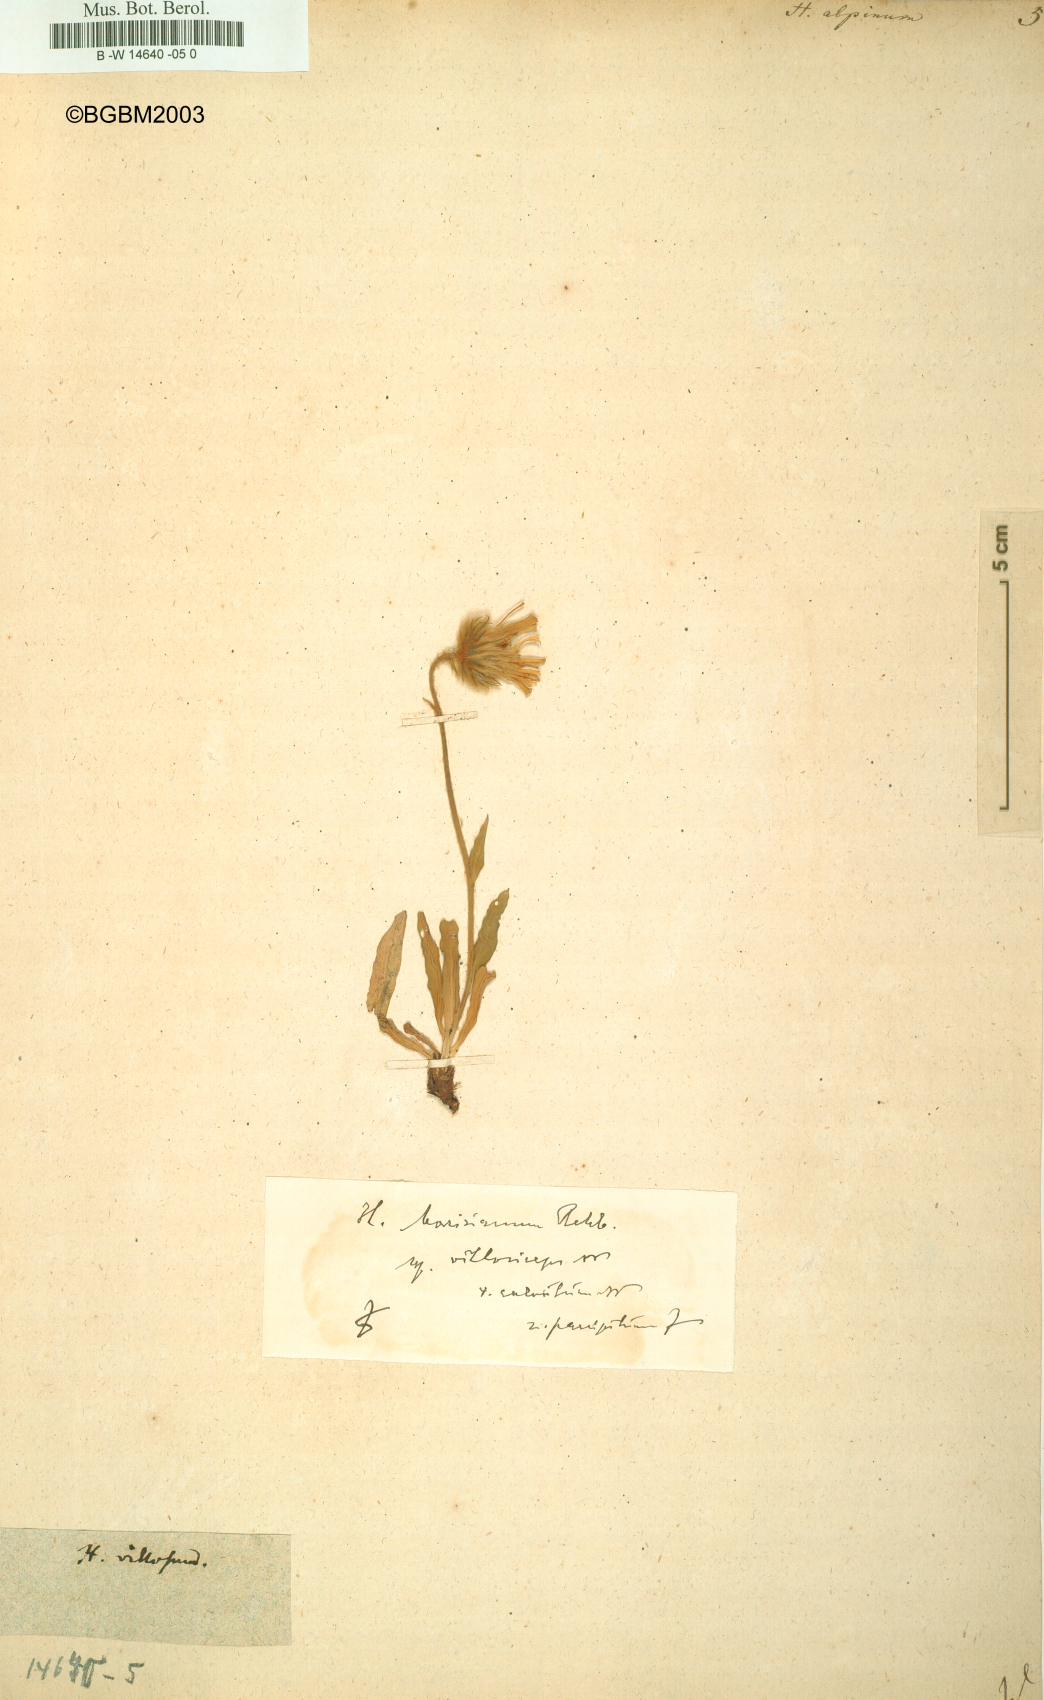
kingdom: Plantae
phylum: Tracheophyta
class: Magnoliopsida
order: Asterales
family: Asteraceae
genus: Hieracium
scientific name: Hieracium alpinum
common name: Alpine hawkweed
